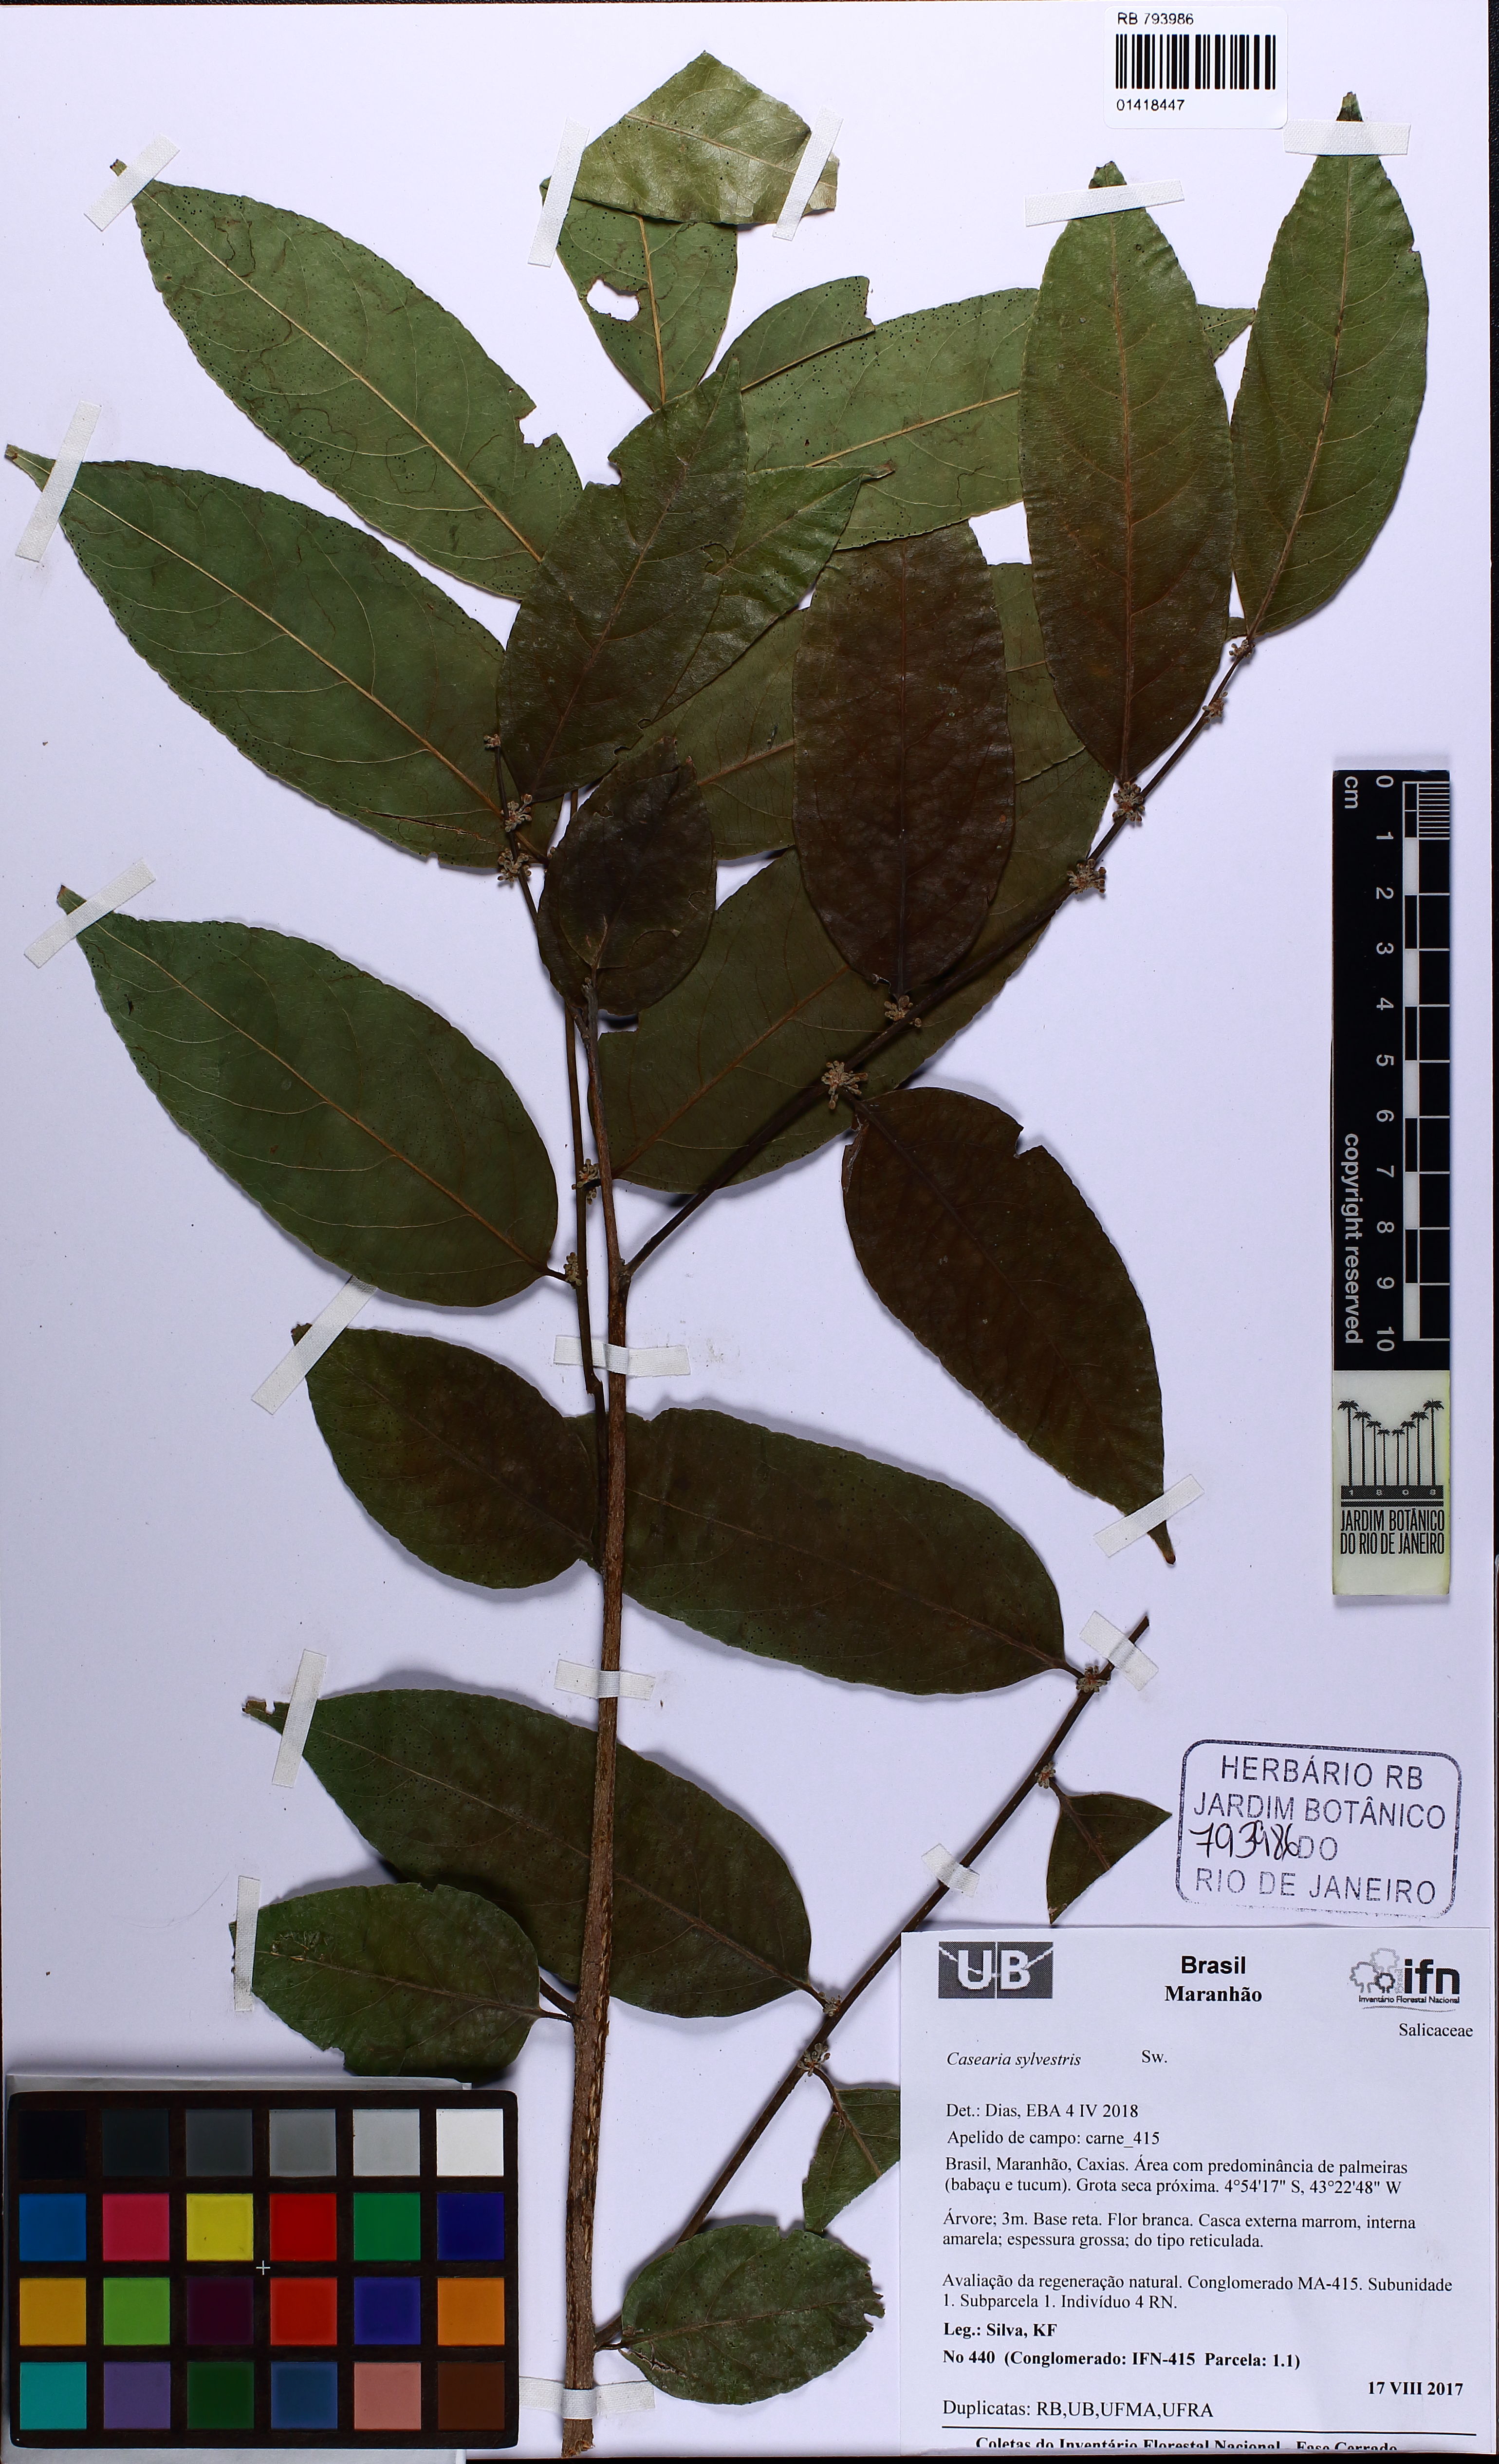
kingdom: Plantae
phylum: Tracheophyta
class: Magnoliopsida
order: Malpighiales
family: Salicaceae
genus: Casearia
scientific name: Casearia sylvestris
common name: Wild sage
